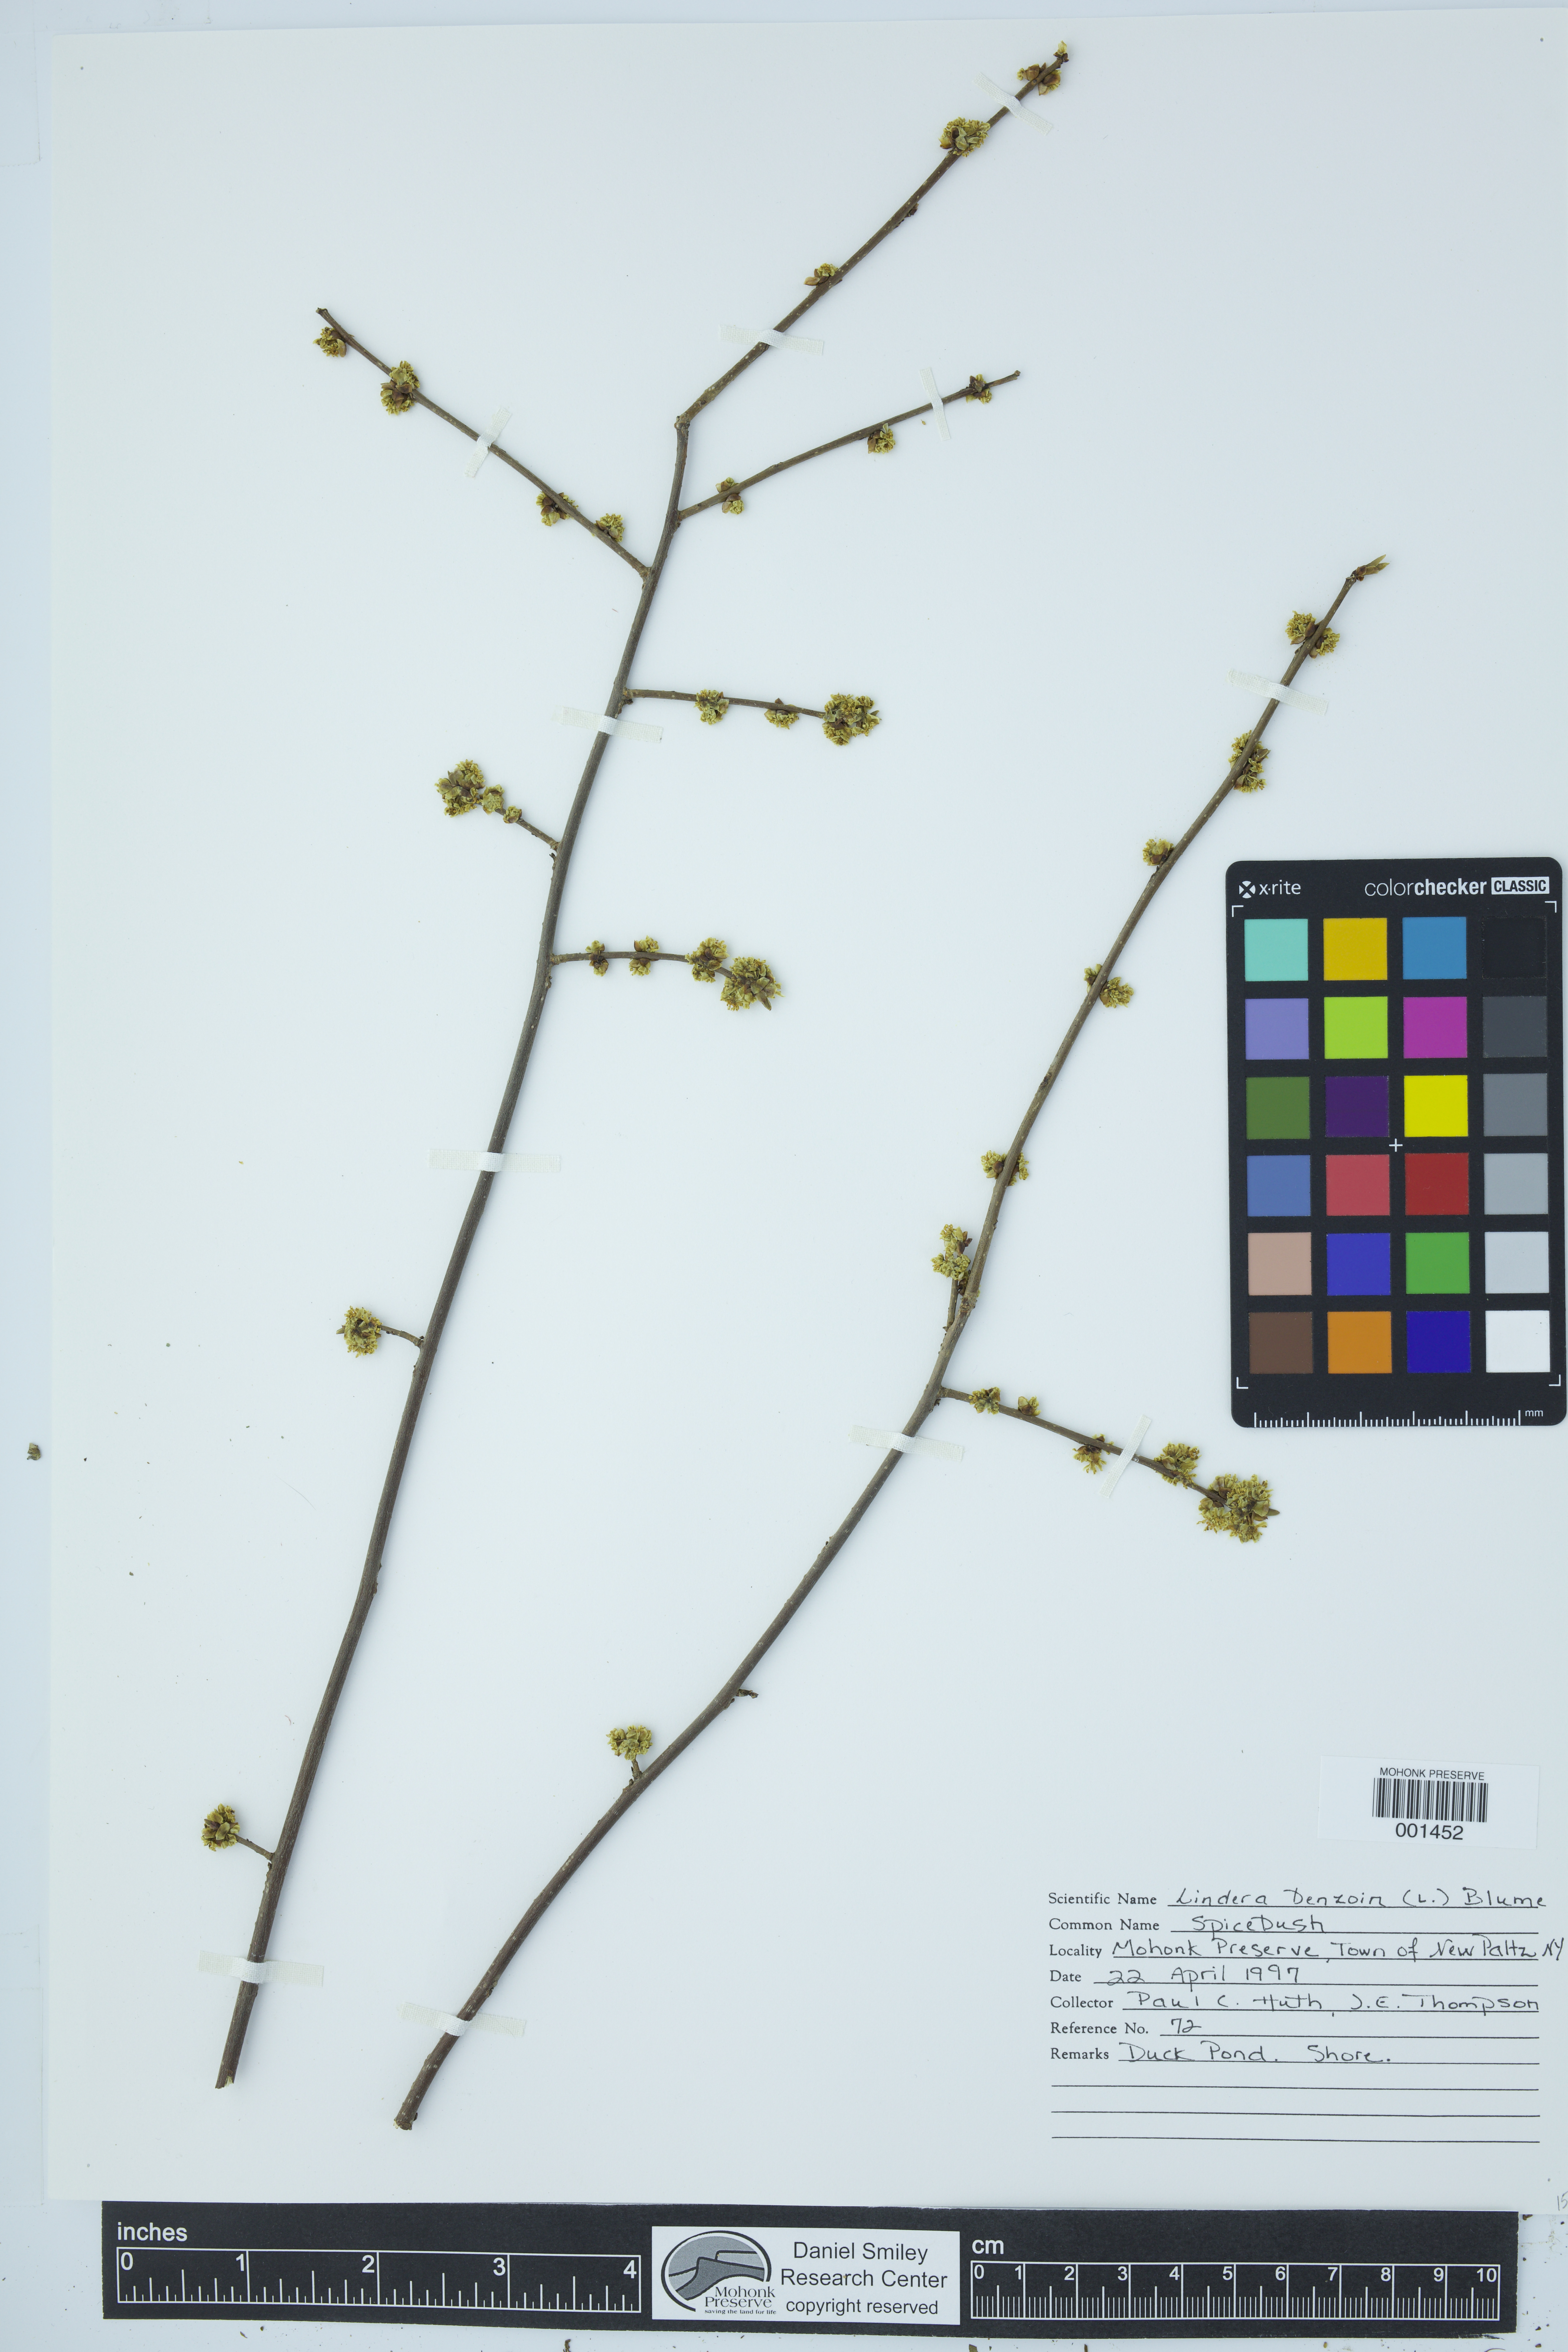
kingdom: Plantae
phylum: Tracheophyta
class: Magnoliopsida
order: Laurales
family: Lauraceae
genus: Lindera
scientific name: Lindera benzoin
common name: Spicebush
